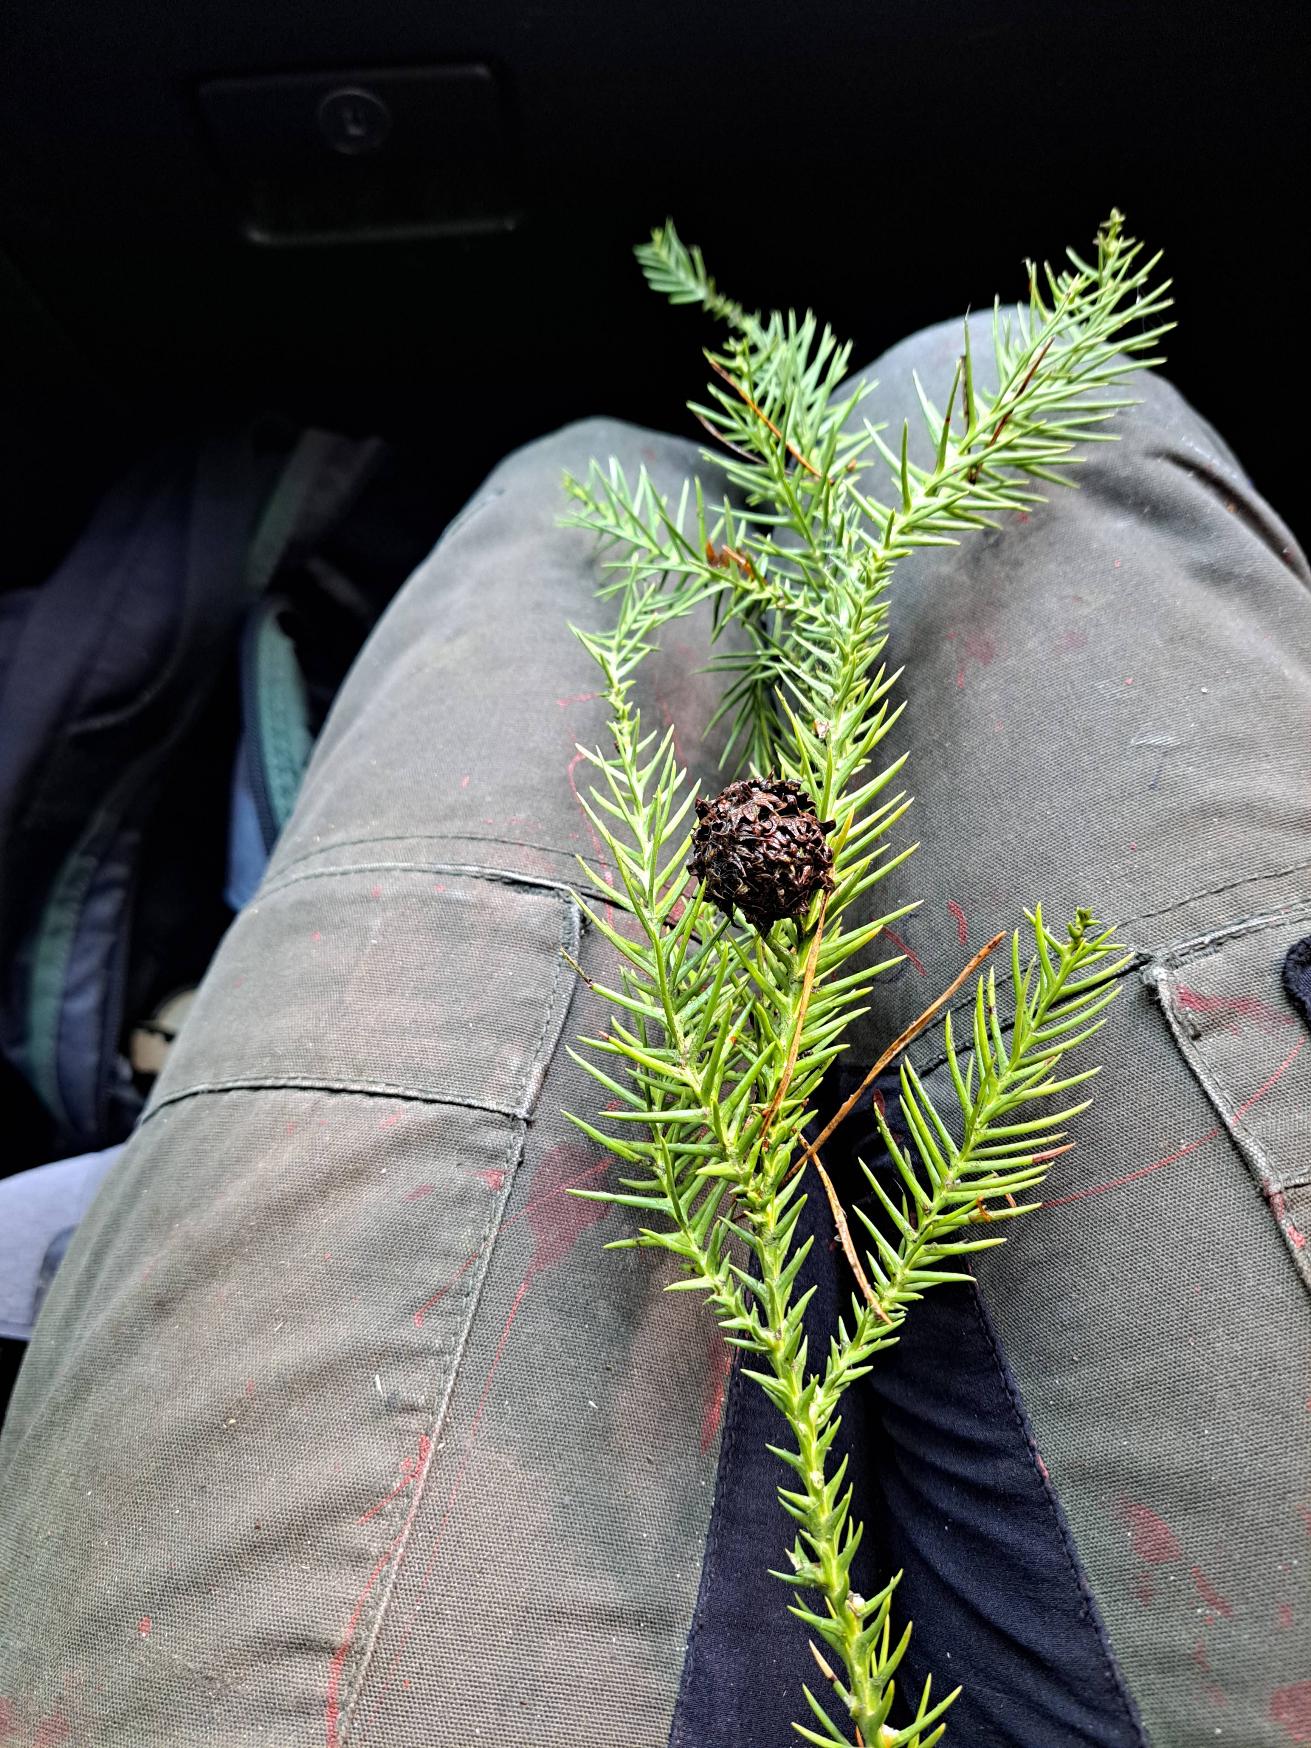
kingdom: Plantae
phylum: Tracheophyta
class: Pinopsida
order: Pinales
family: Cupressaceae
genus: Cryptomeria
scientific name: Cryptomeria japonica
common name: Kryptomeria
